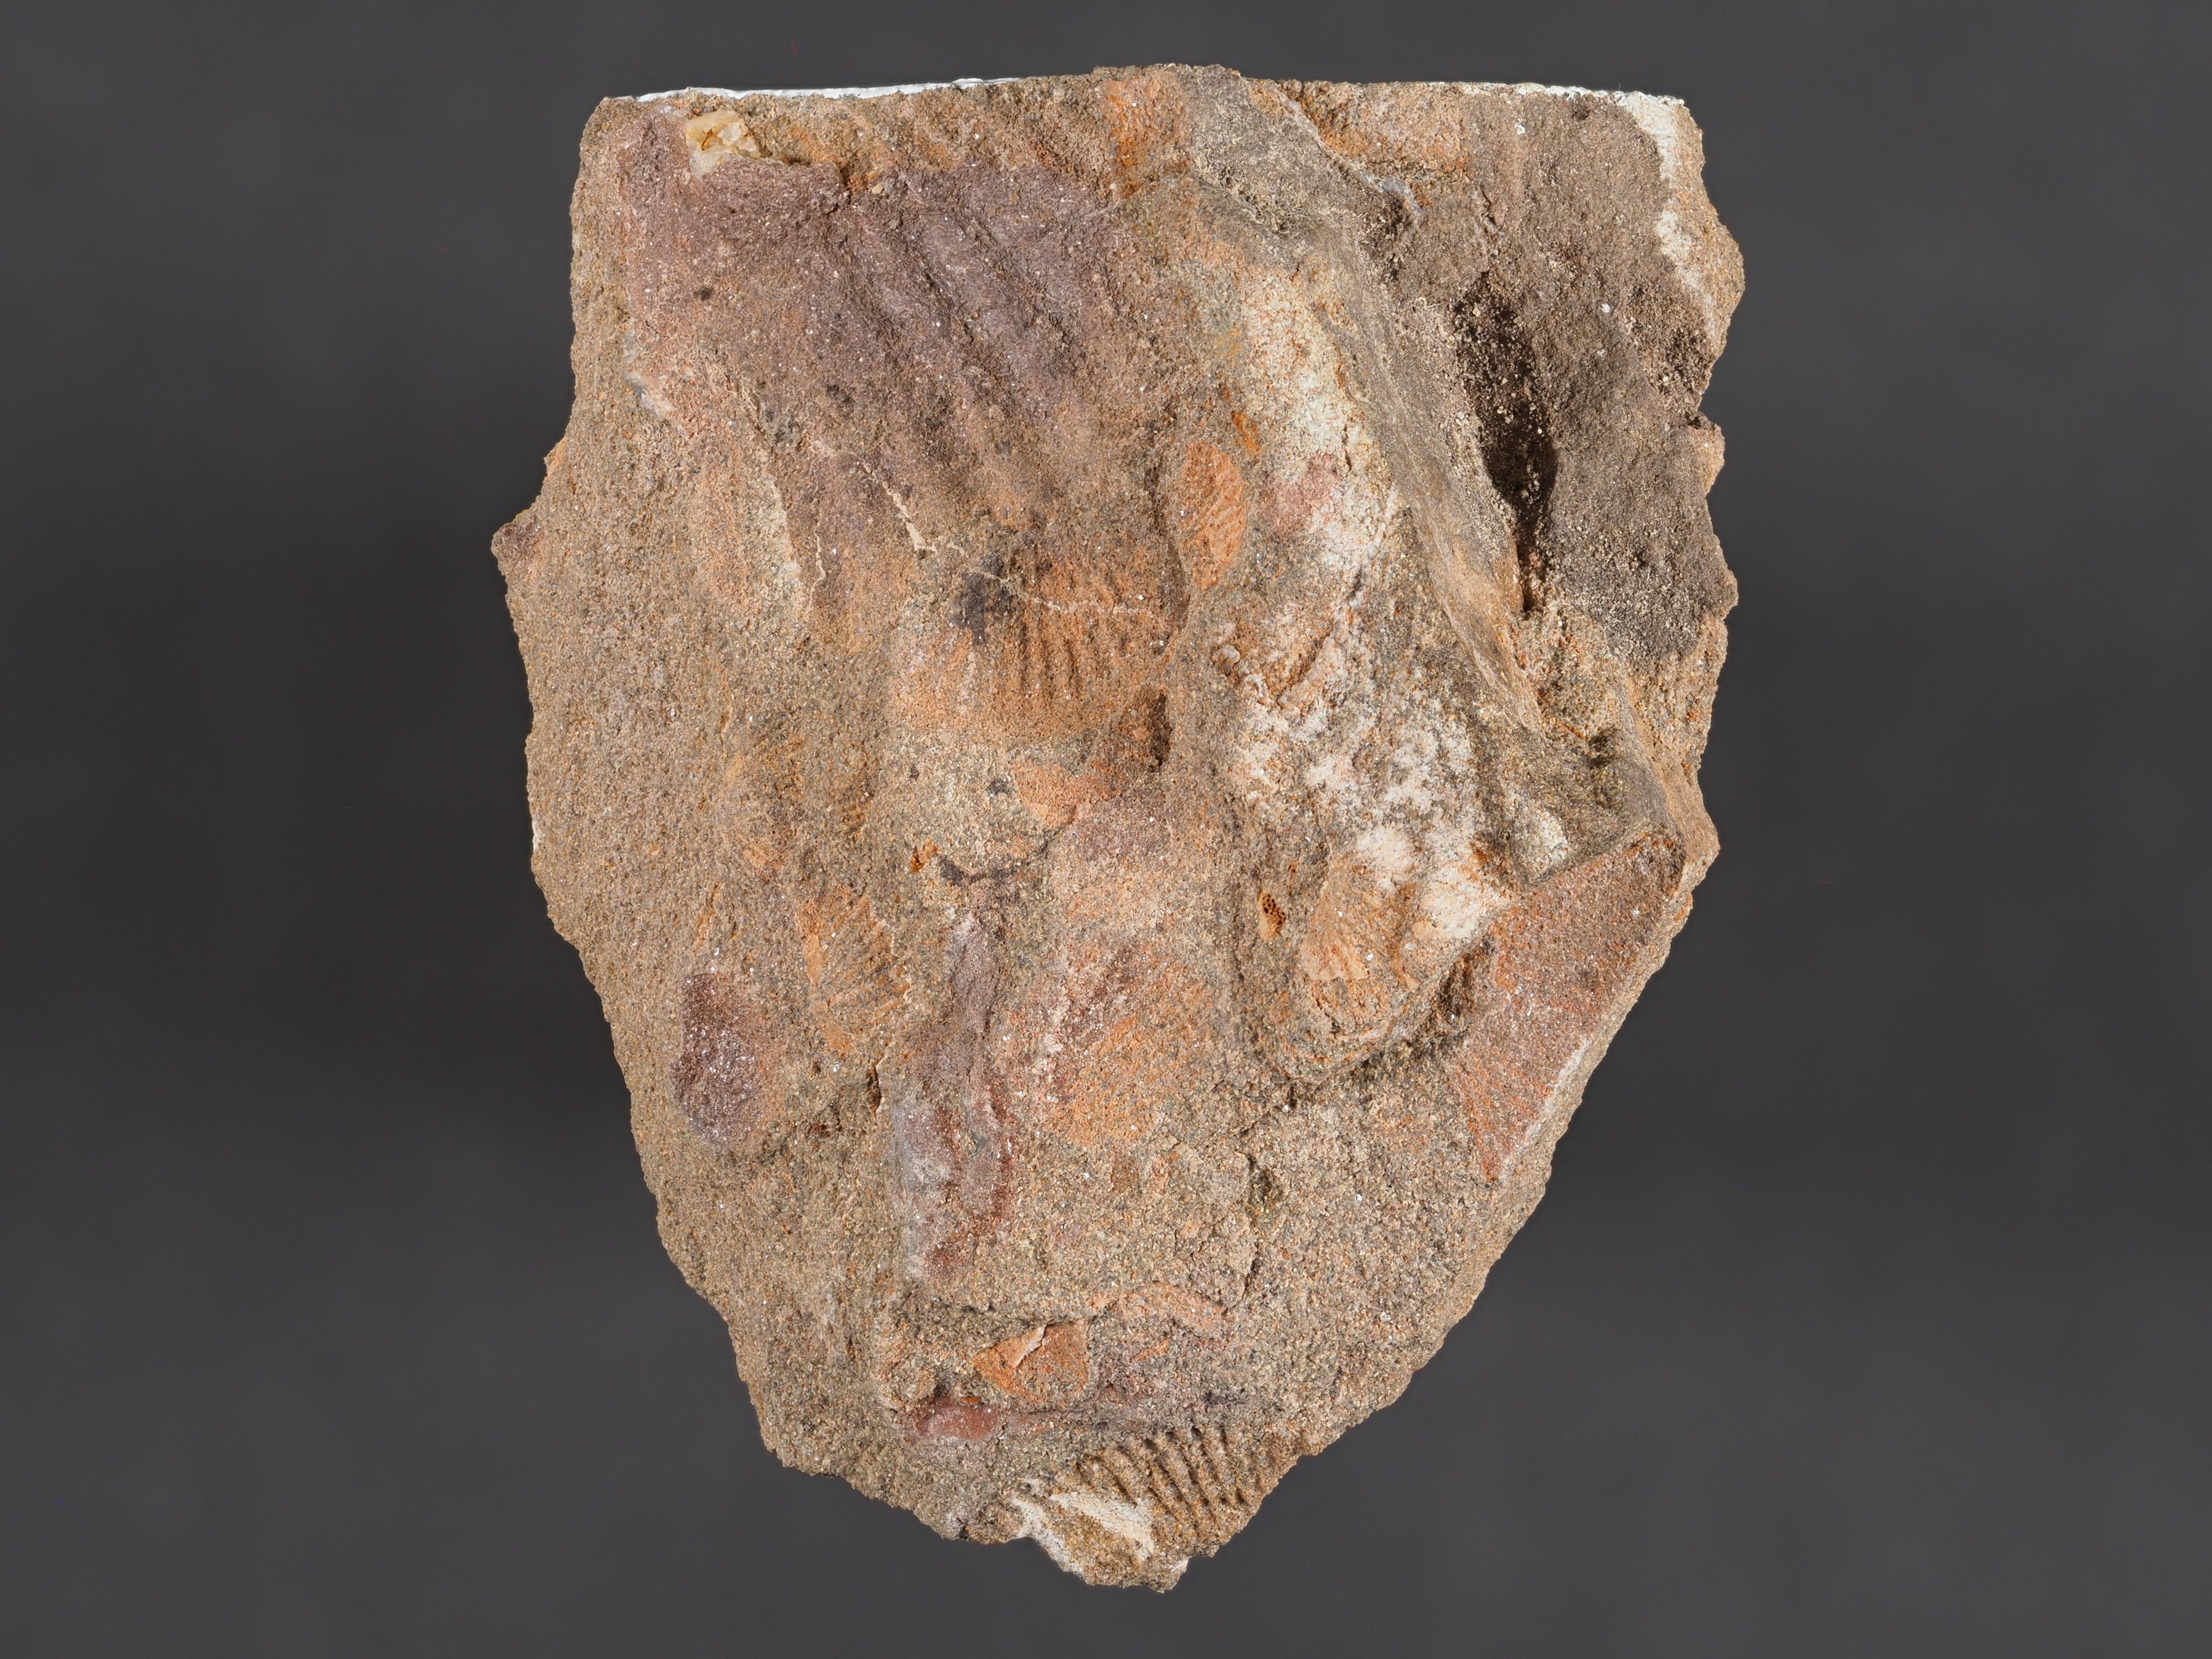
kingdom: Animalia
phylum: Mollusca
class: Bivalvia
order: Nuculanida
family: Cucullellidae
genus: Nuculites
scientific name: Nuculites
